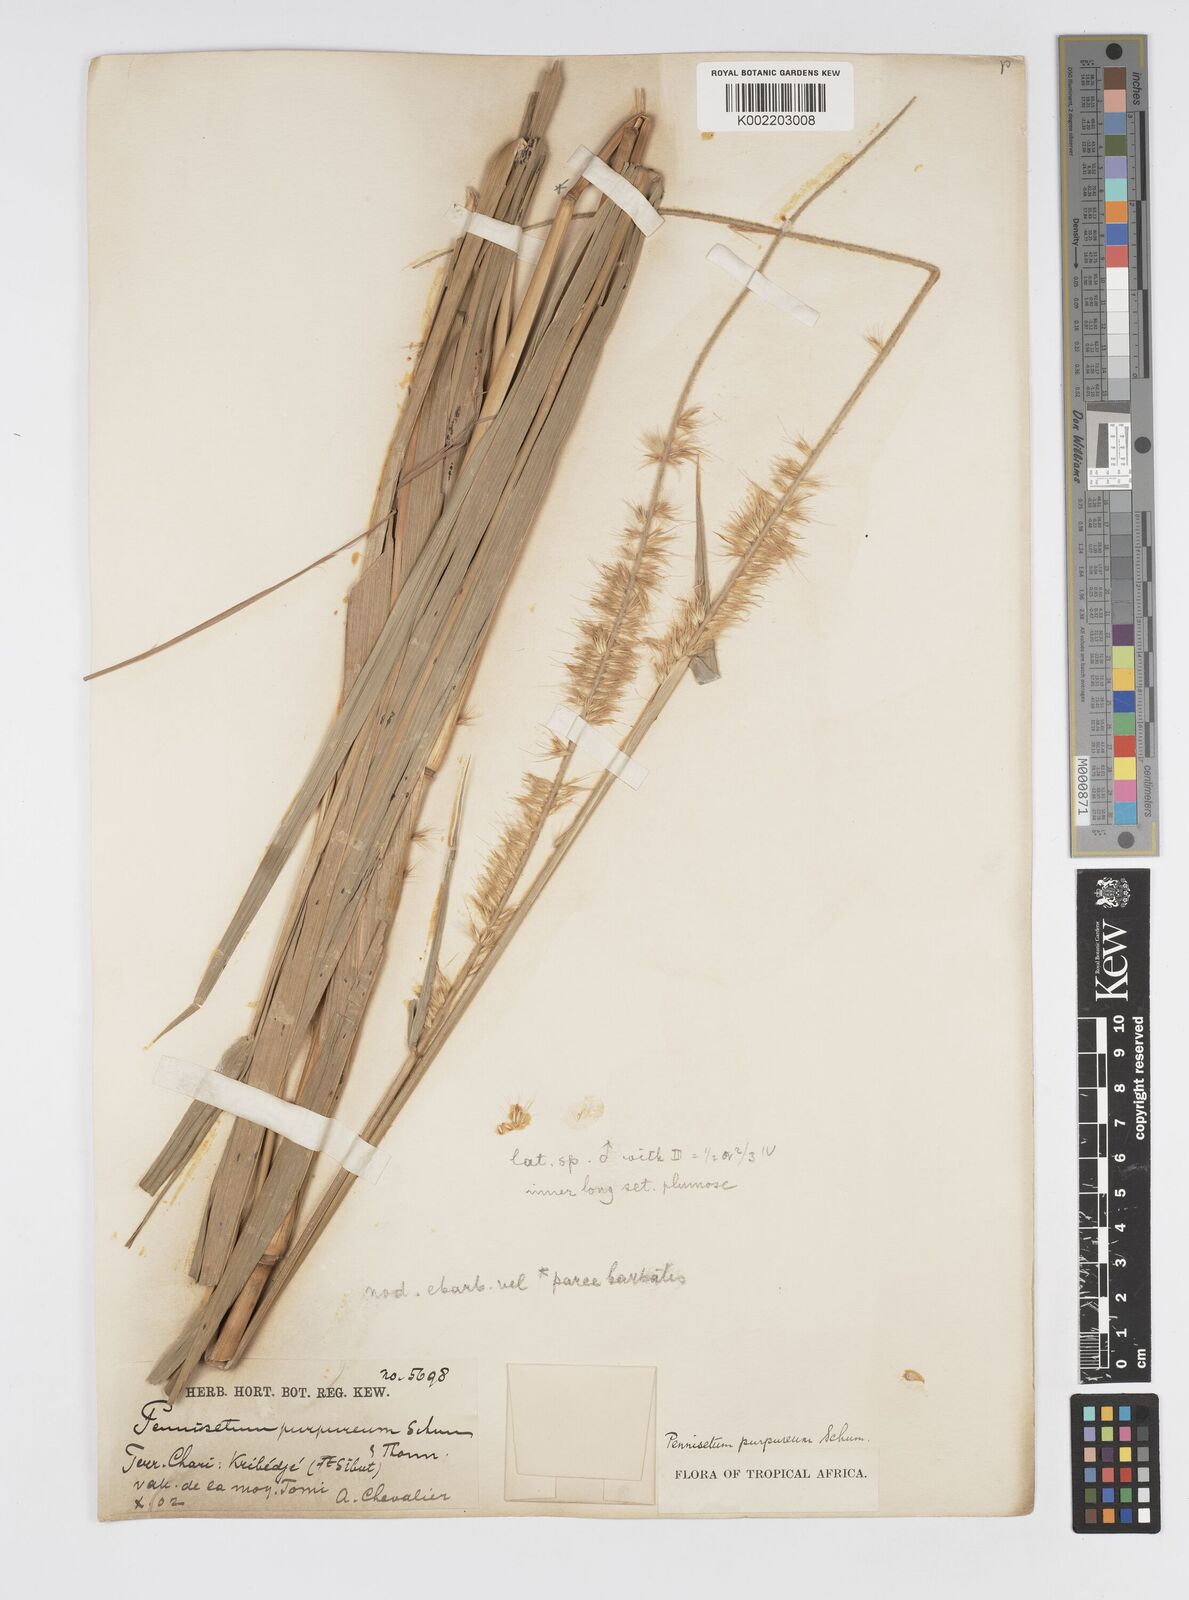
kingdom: Plantae
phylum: Tracheophyta
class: Liliopsida
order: Poales
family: Poaceae
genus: Cenchrus
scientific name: Cenchrus purpureus
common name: Elephant grass
